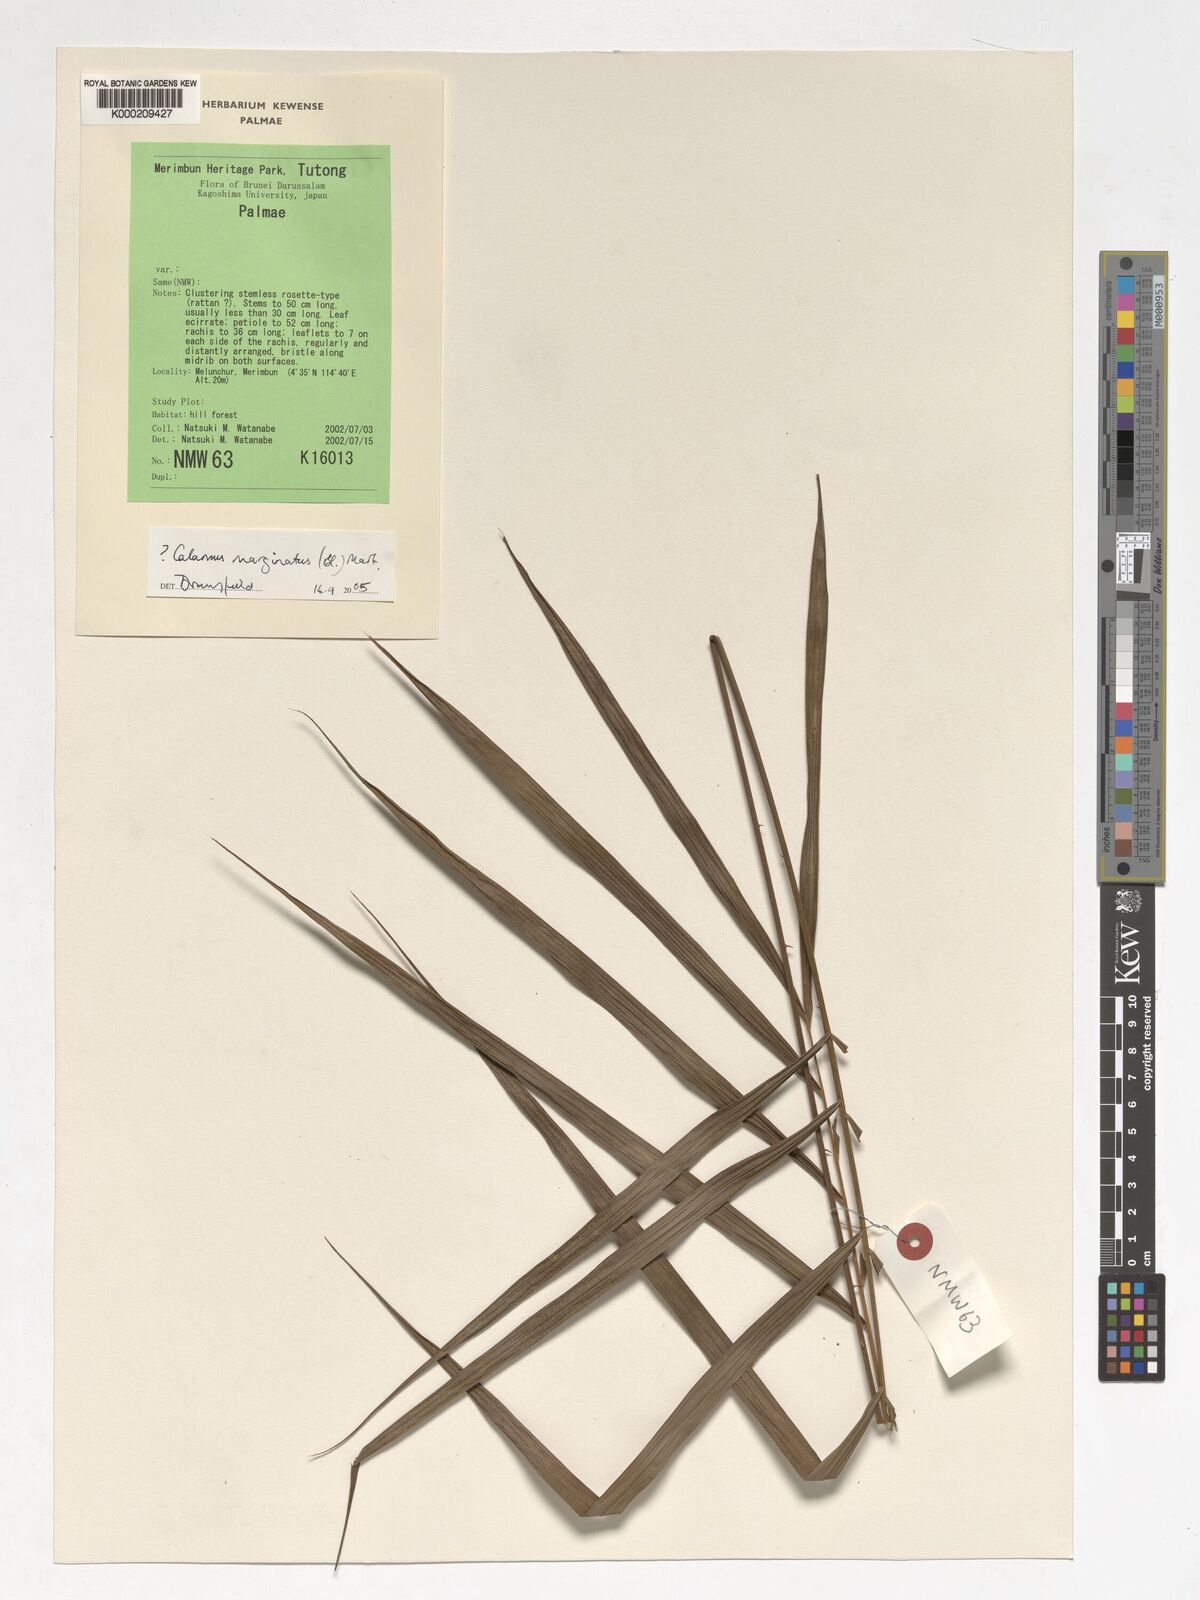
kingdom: Plantae
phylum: Tracheophyta
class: Liliopsida
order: Arecales
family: Arecaceae
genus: Calamus
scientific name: Calamus
